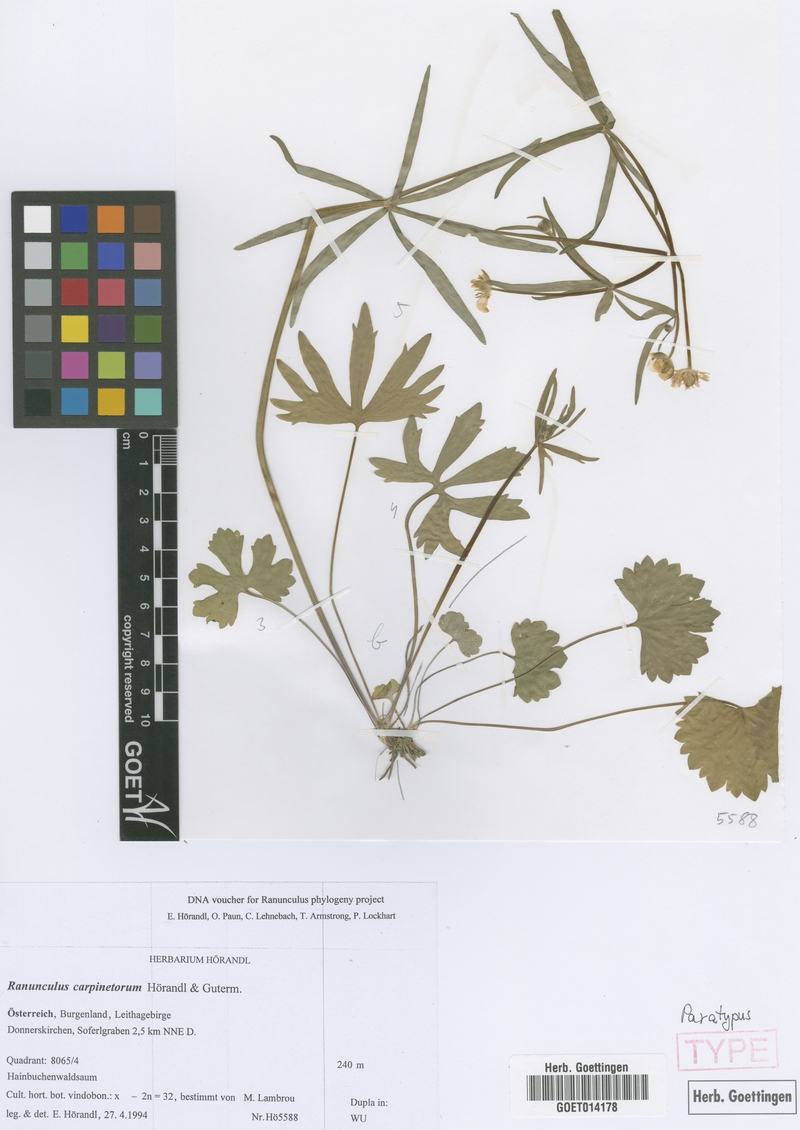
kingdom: Plantae
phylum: Tracheophyta
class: Magnoliopsida
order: Ranunculales
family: Ranunculaceae
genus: Ranunculus
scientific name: Ranunculus carpinetorum
